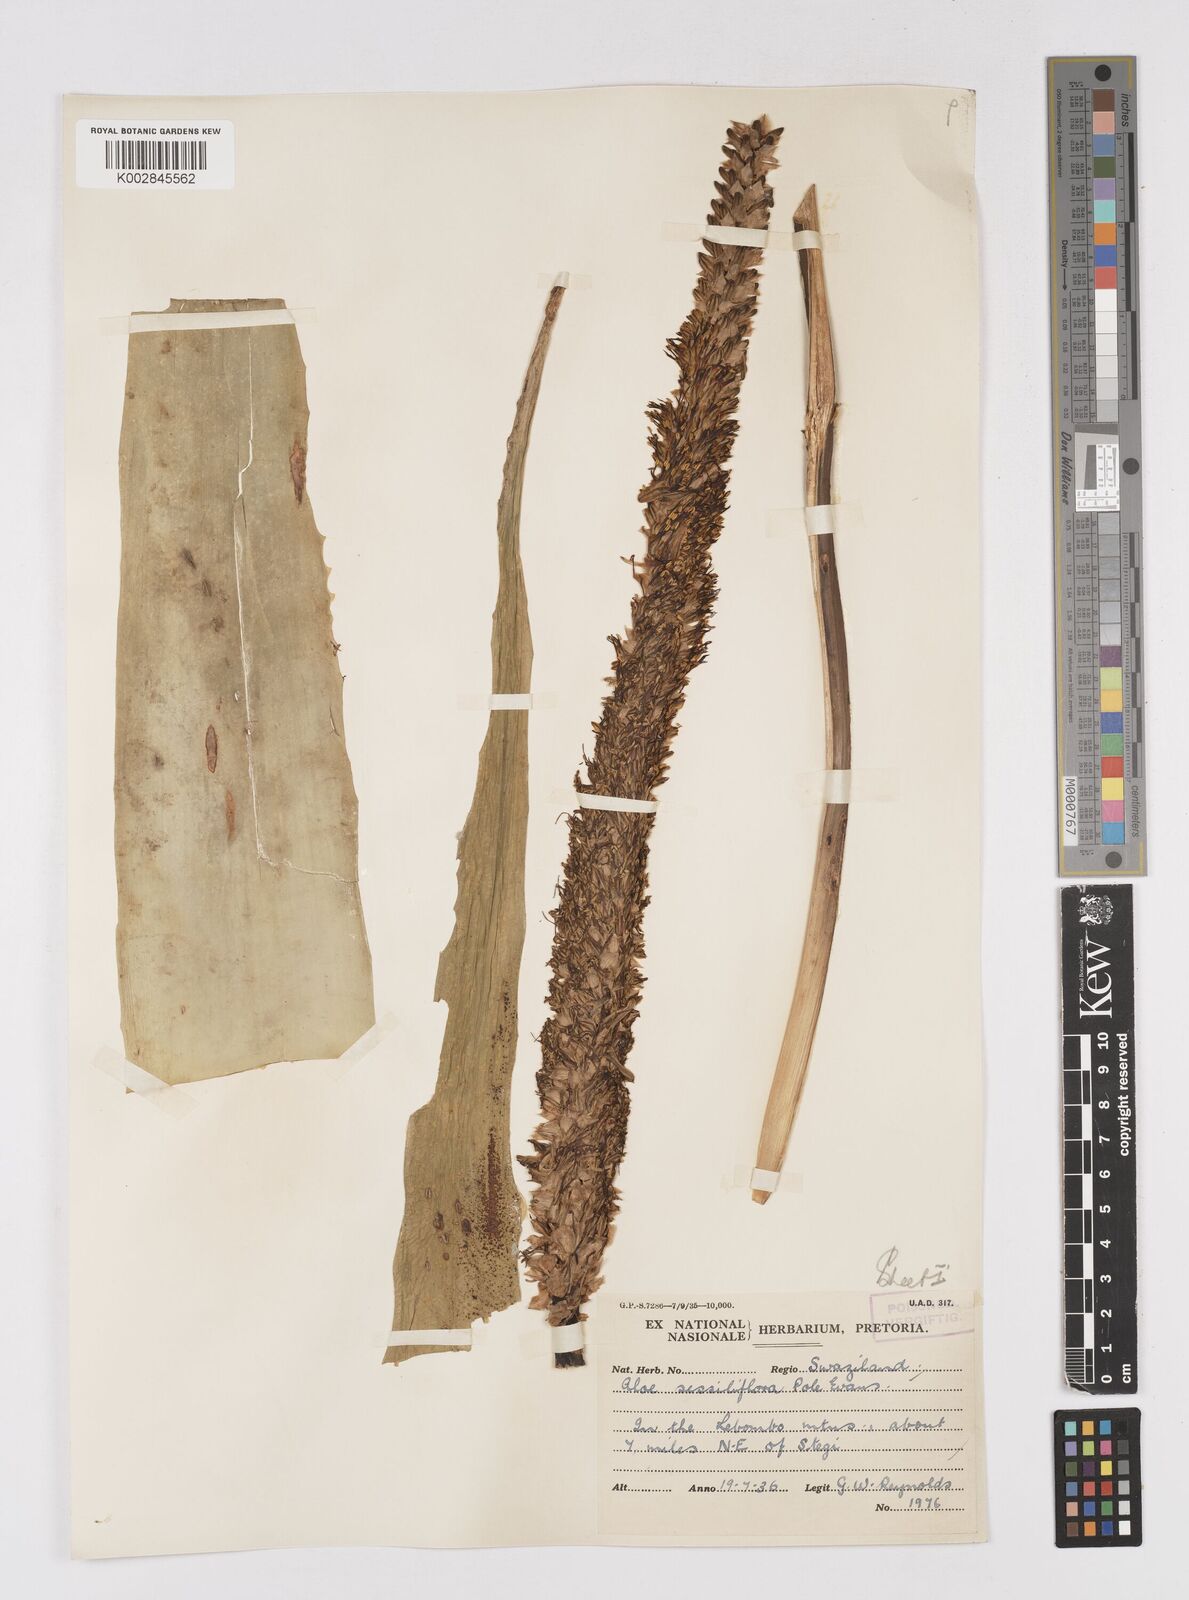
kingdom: Plantae
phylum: Tracheophyta
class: Liliopsida
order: Asparagales
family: Asphodelaceae
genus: Aloe
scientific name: Aloe spicata
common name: Gazaland aloe
